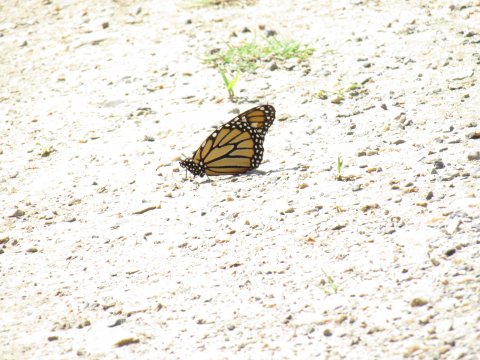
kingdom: Animalia
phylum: Arthropoda
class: Insecta
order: Lepidoptera
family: Nymphalidae
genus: Danaus
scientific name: Danaus plexippus
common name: Monarch
